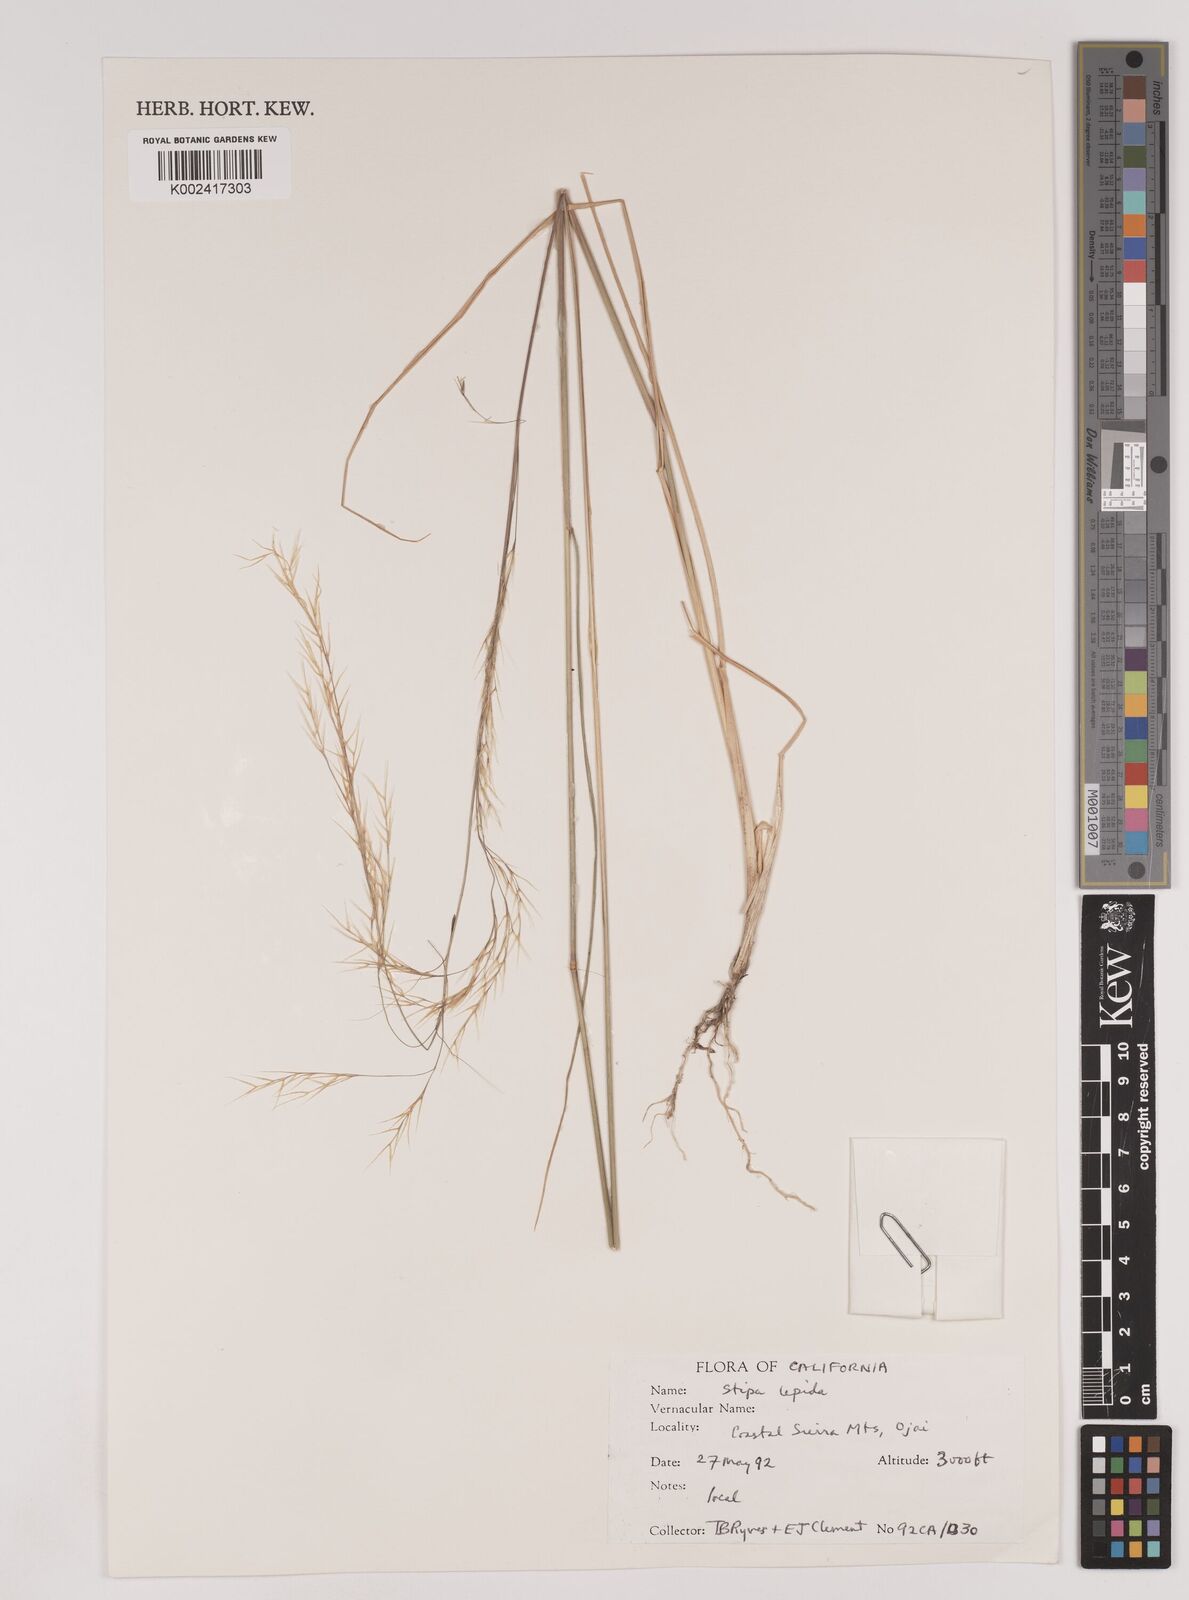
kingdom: Plantae
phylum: Tracheophyta
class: Liliopsida
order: Poales
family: Poaceae
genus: Nassella
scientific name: Nassella lepida
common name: Foothill needlegrass
